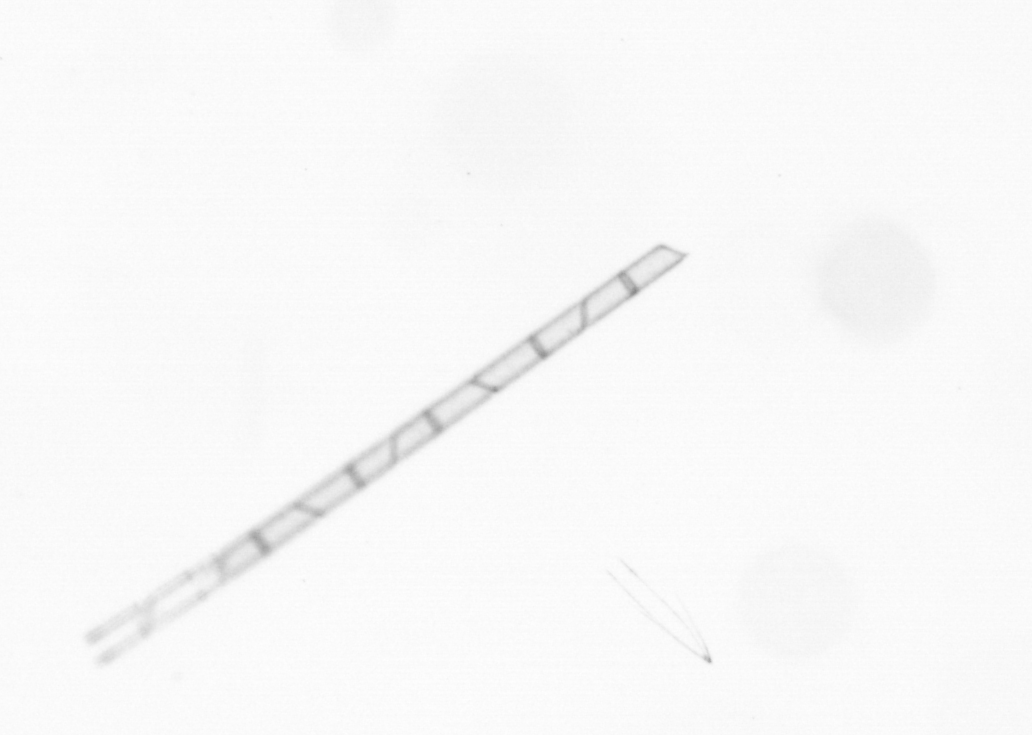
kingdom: Chromista
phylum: Ochrophyta
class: Bacillariophyceae
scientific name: Bacillariophyceae
